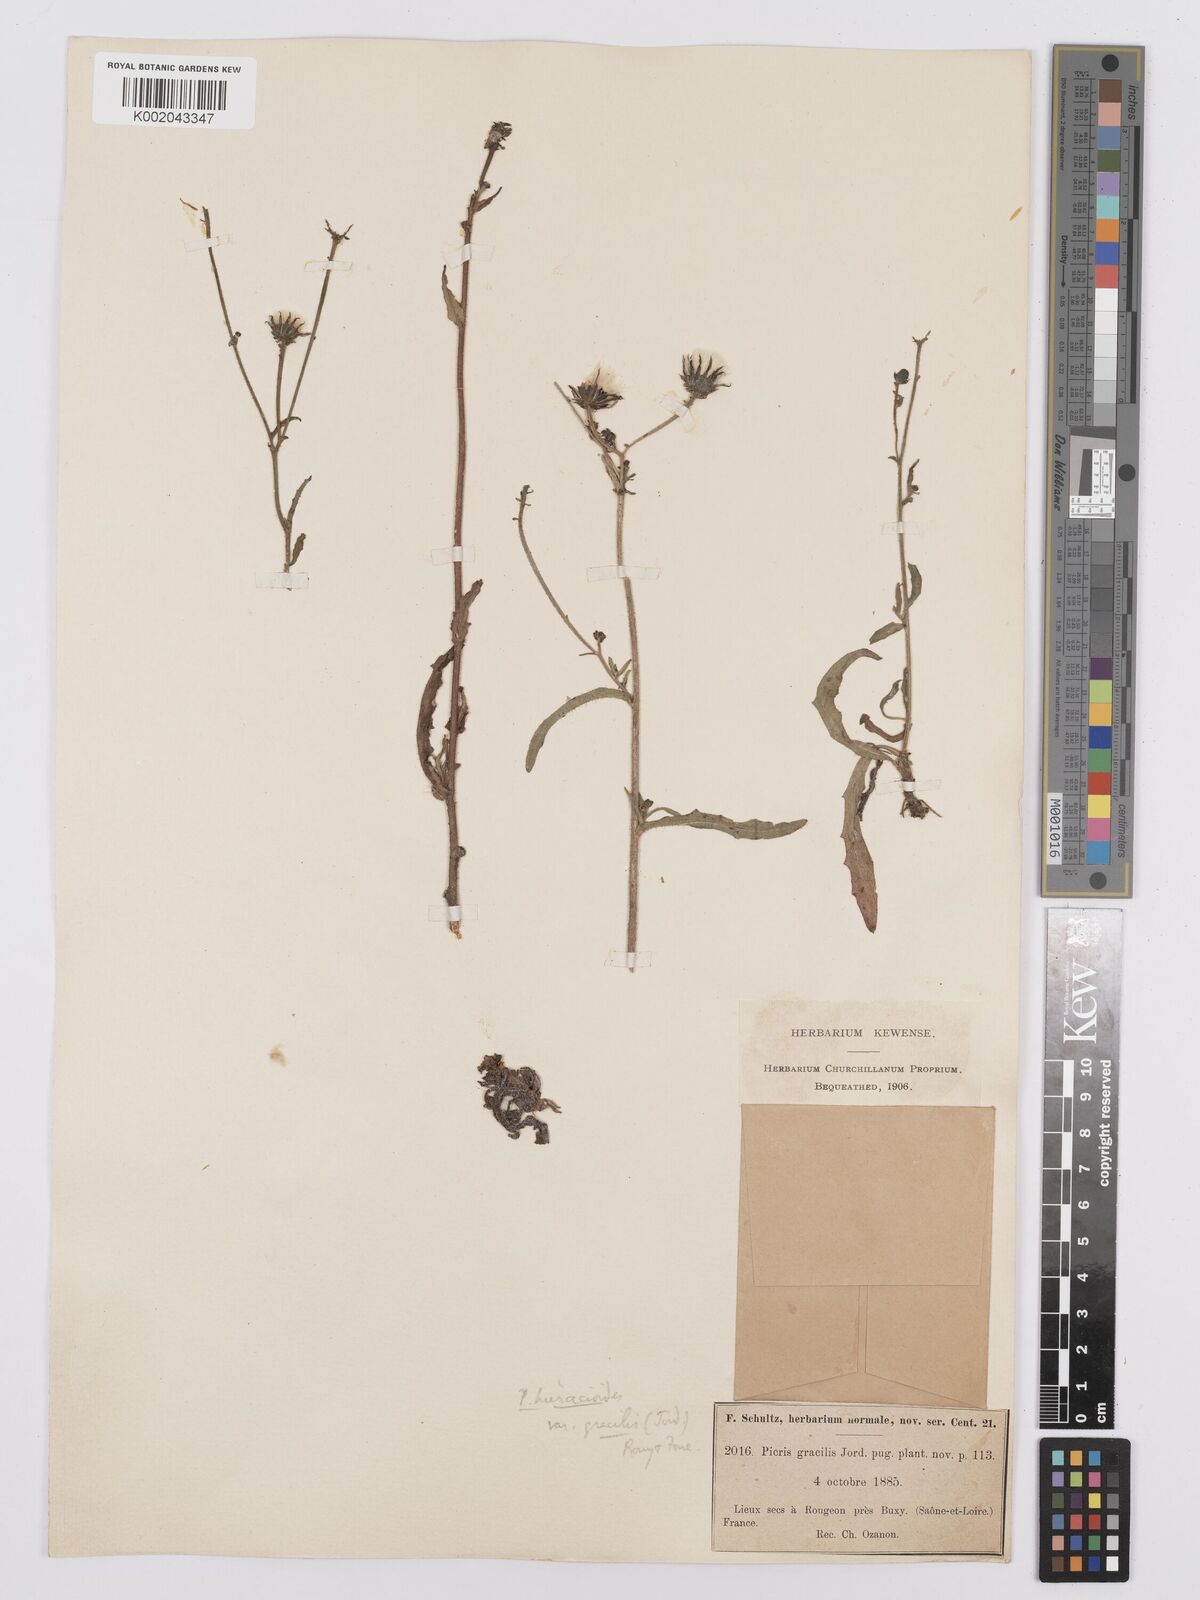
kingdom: Plantae
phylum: Tracheophyta
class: Magnoliopsida
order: Asterales
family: Asteraceae
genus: Picris
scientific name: Picris hieracioides
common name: Hawkweed oxtongue
